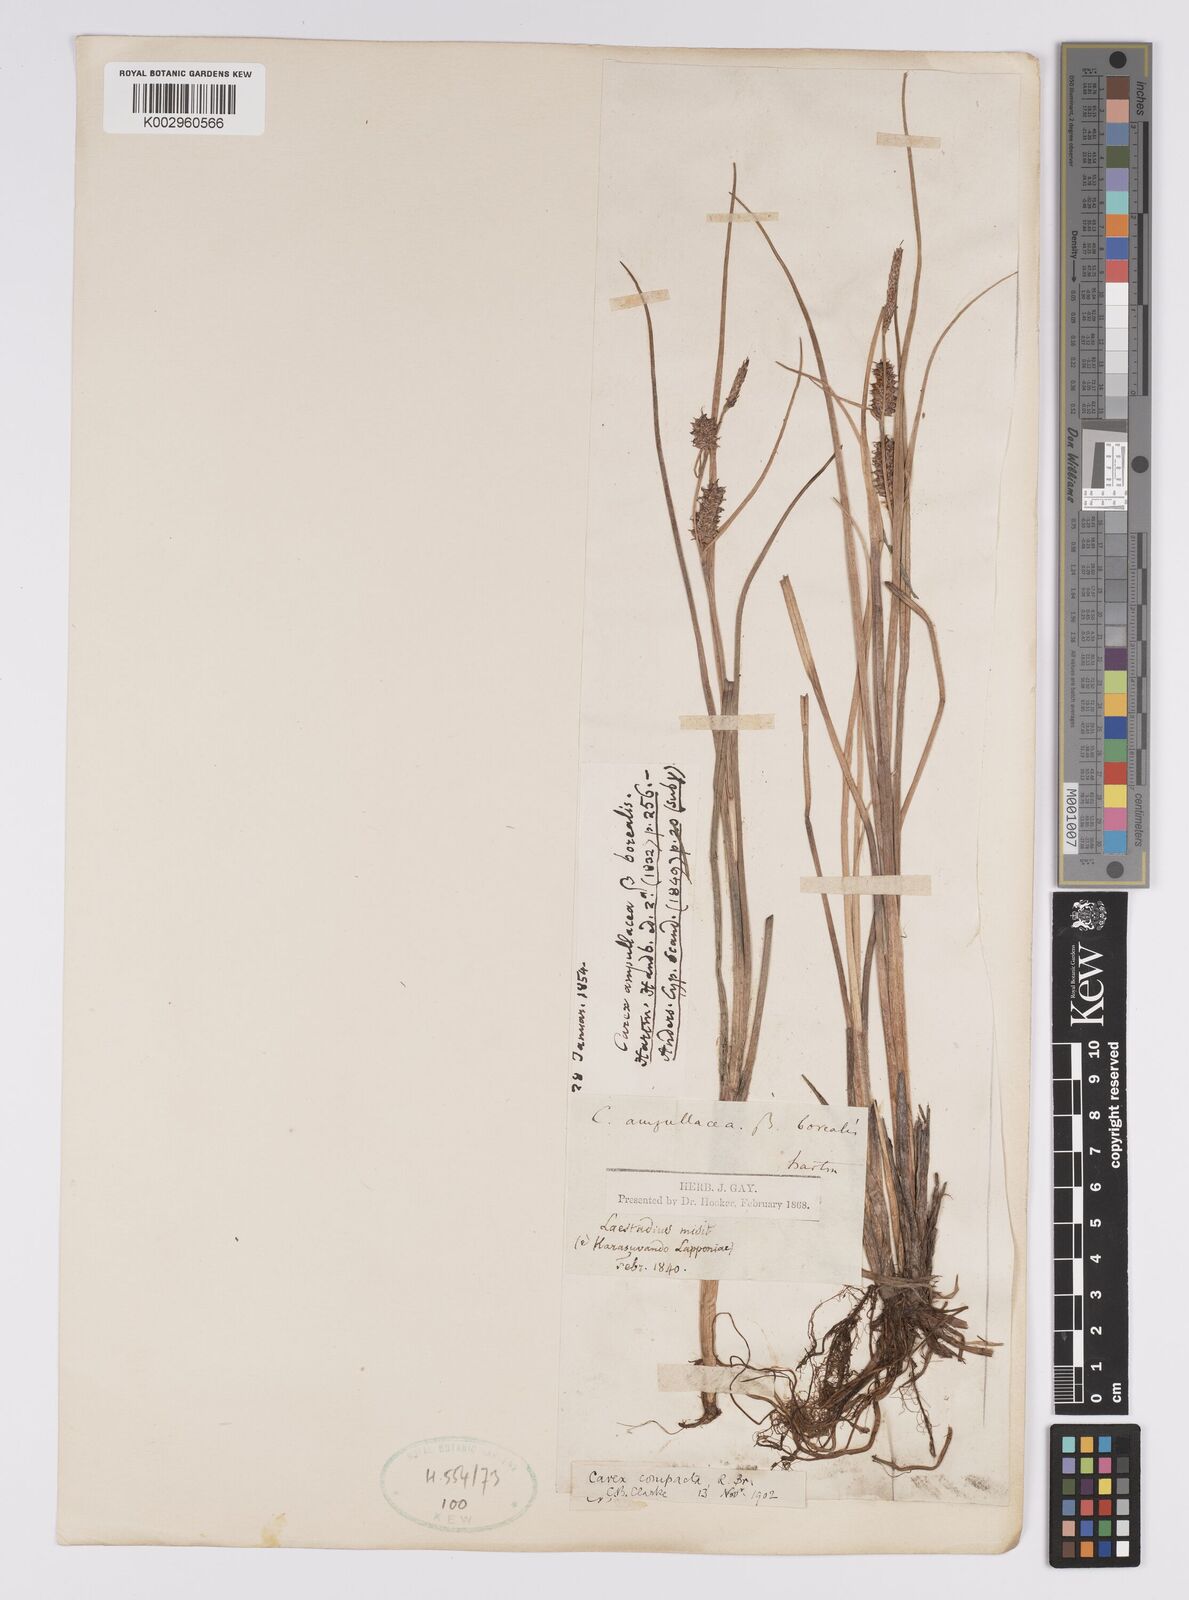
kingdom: Plantae
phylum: Tracheophyta
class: Liliopsida
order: Poales
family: Cyperaceae
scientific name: Cyperaceae
